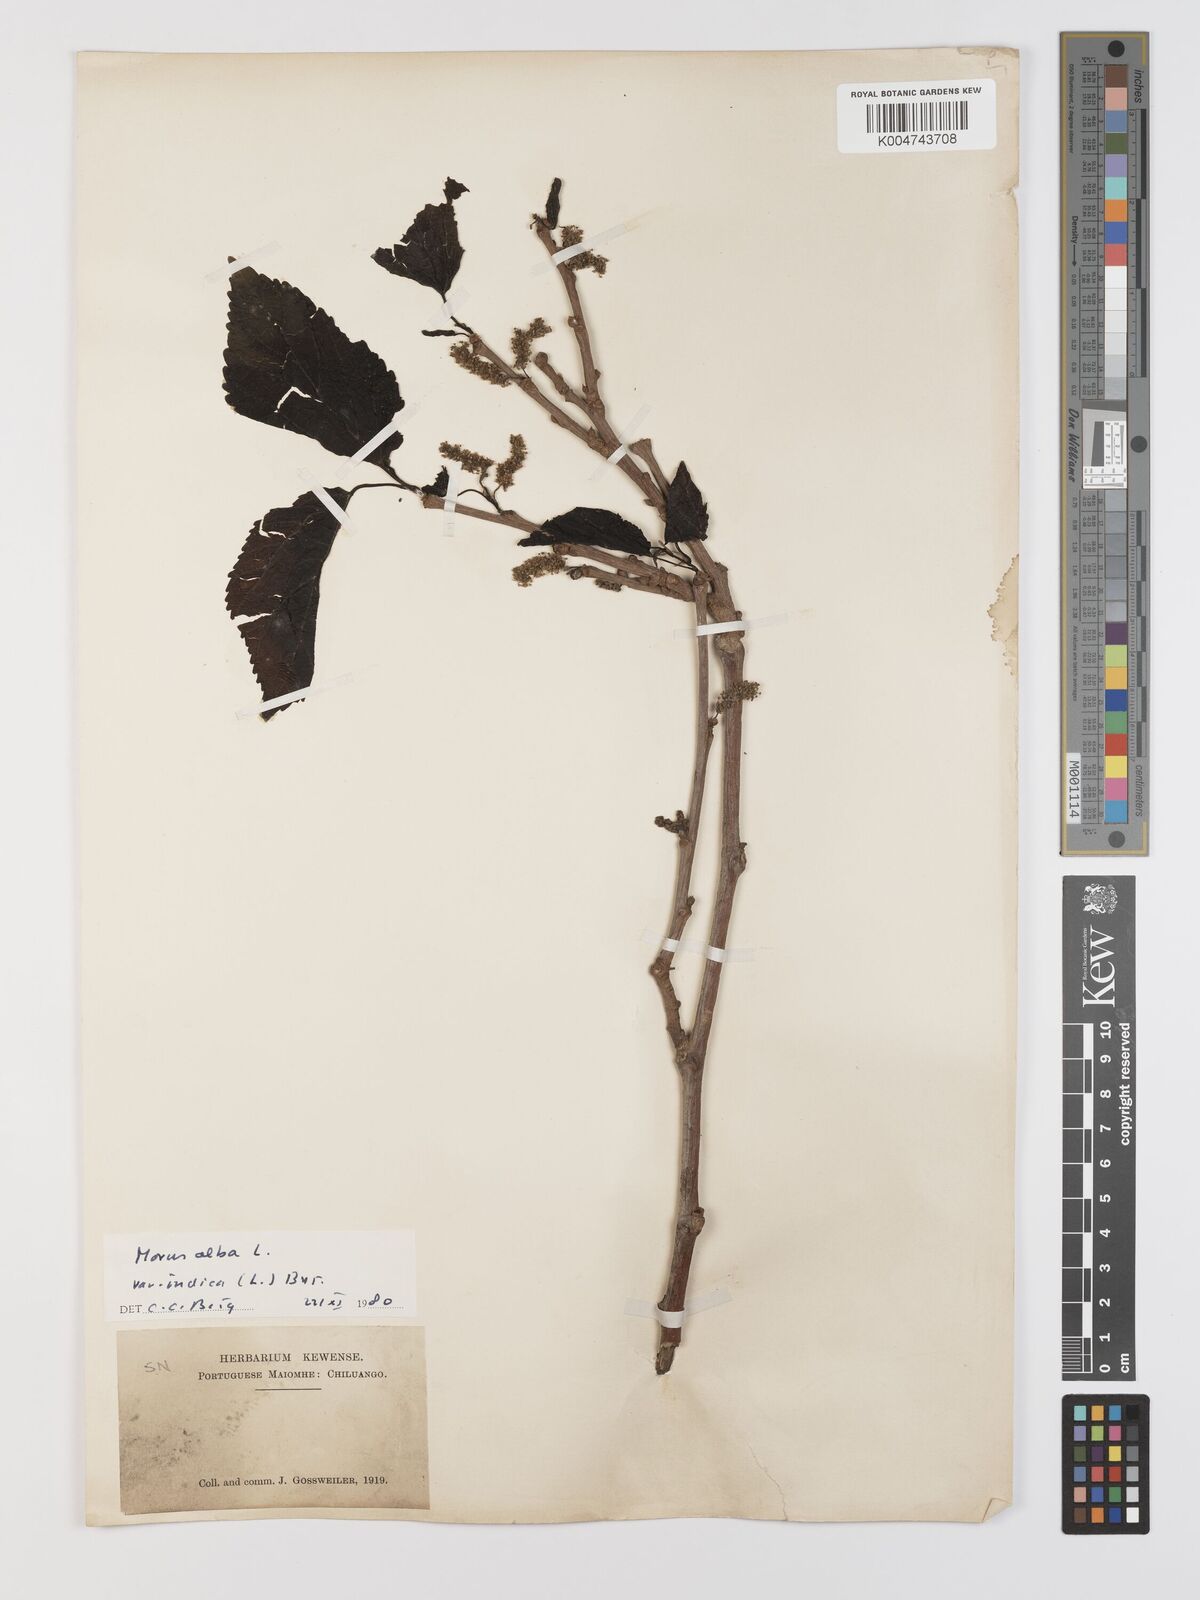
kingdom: Plantae
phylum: Tracheophyta
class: Magnoliopsida
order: Rosales
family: Moraceae
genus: Morus
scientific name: Morus alba
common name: White mulberry
